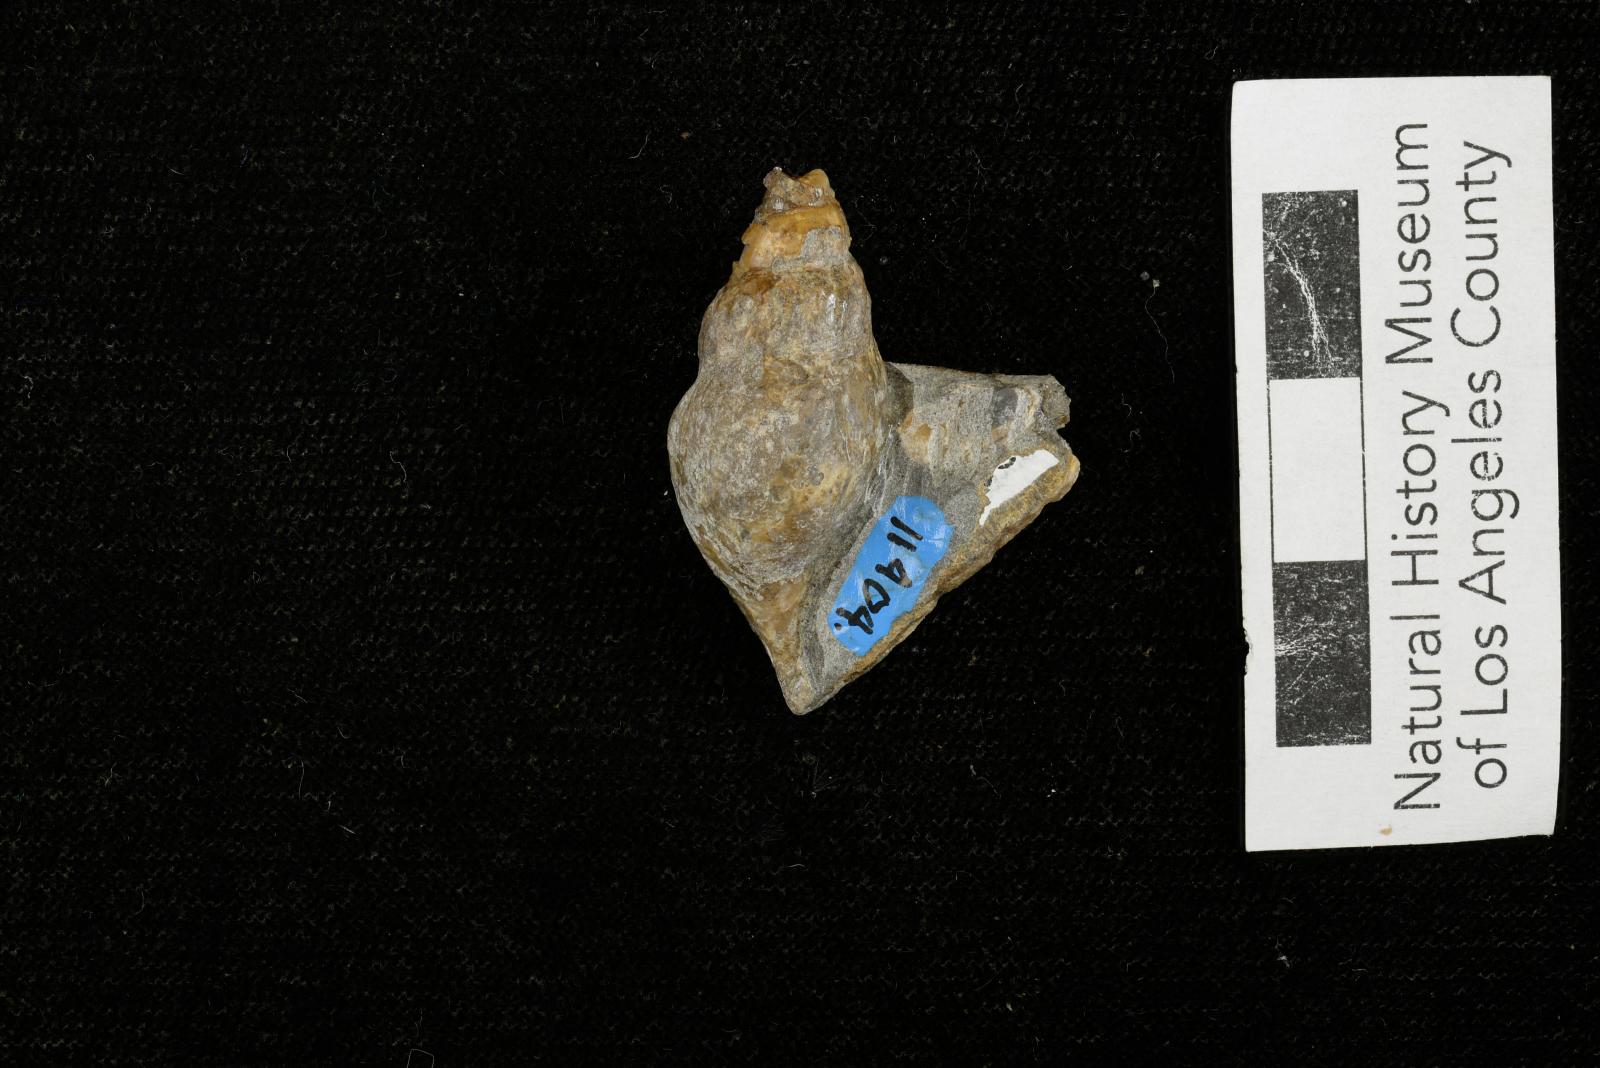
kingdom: Animalia
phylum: Mollusca
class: Gastropoda
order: Littorinimorpha
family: Aporrhaidae
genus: Latiala
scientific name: Latiala Alaria nodosa
